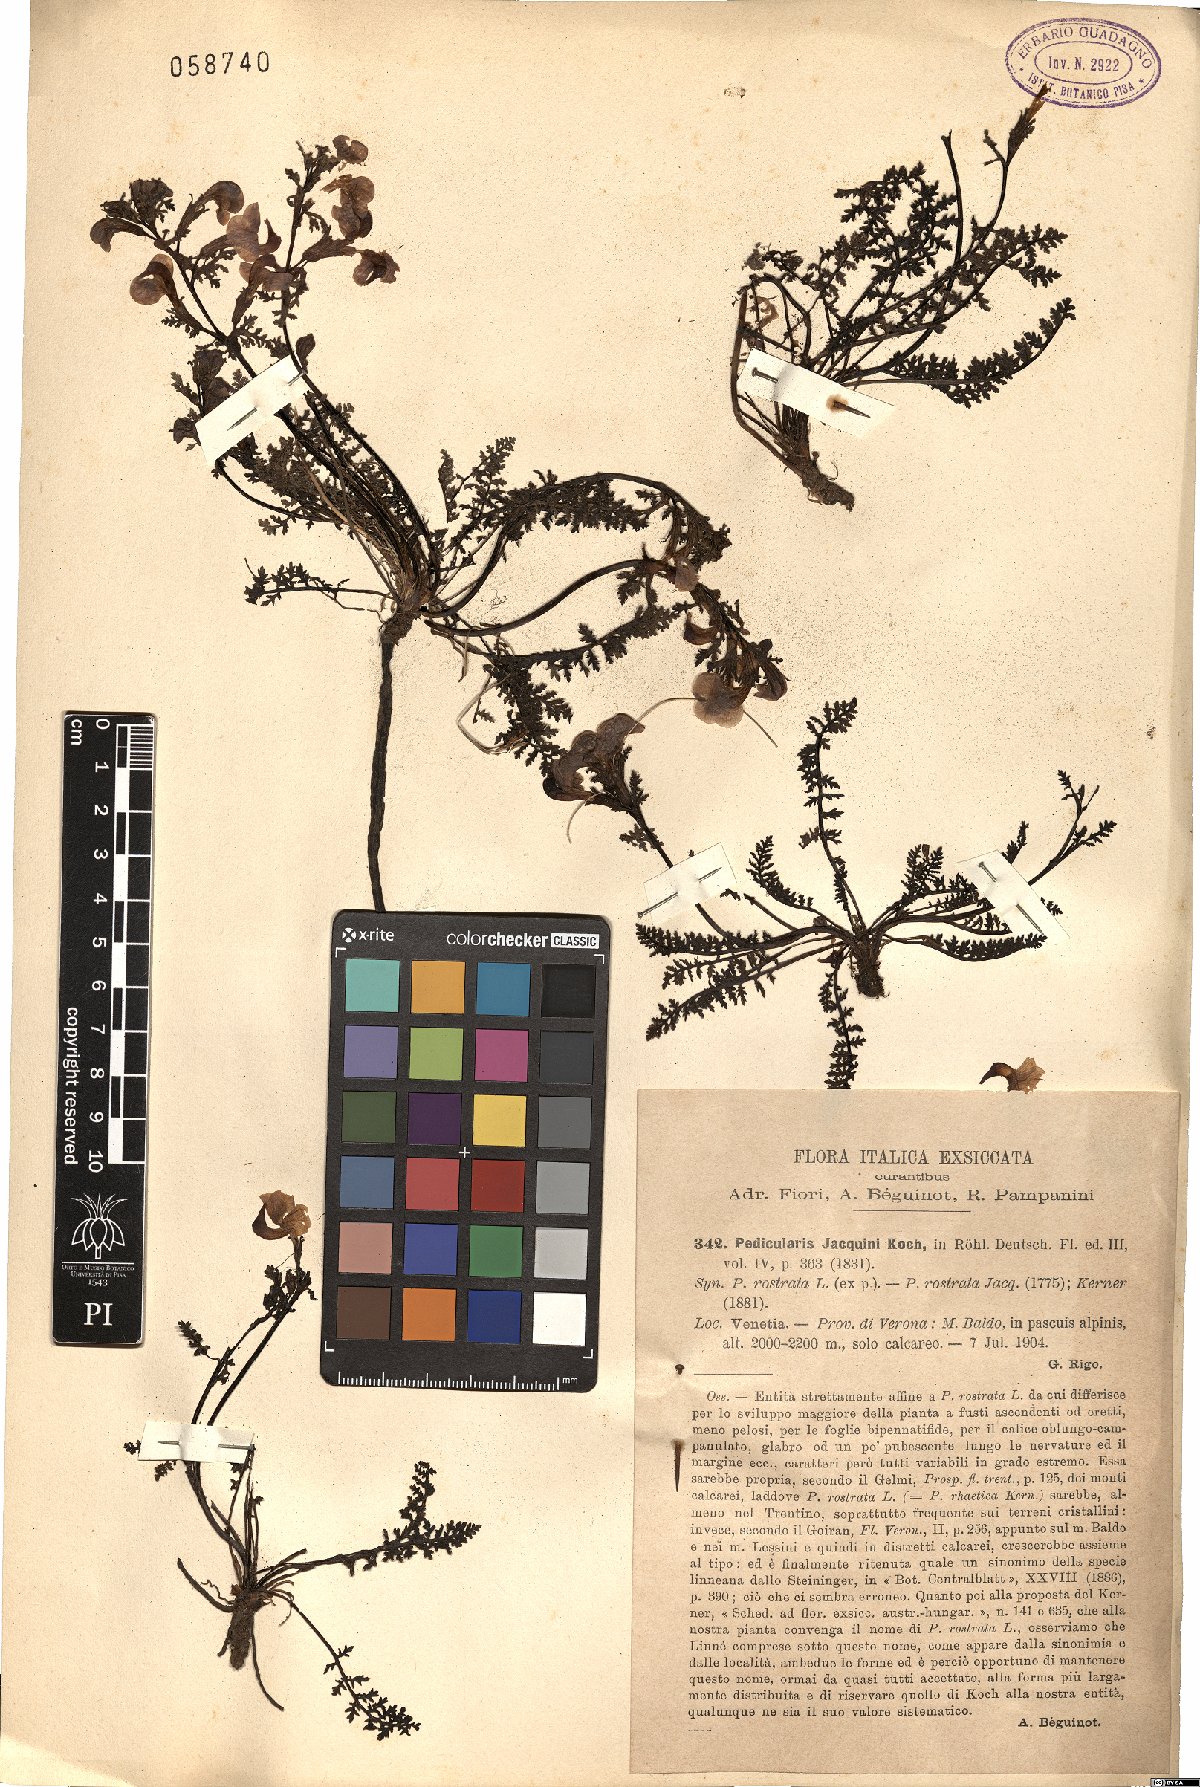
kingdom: Plantae
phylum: Tracheophyta
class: Magnoliopsida
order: Lamiales
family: Orobanchaceae
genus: Pedicularis
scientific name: Pedicularis rostratocapitata
